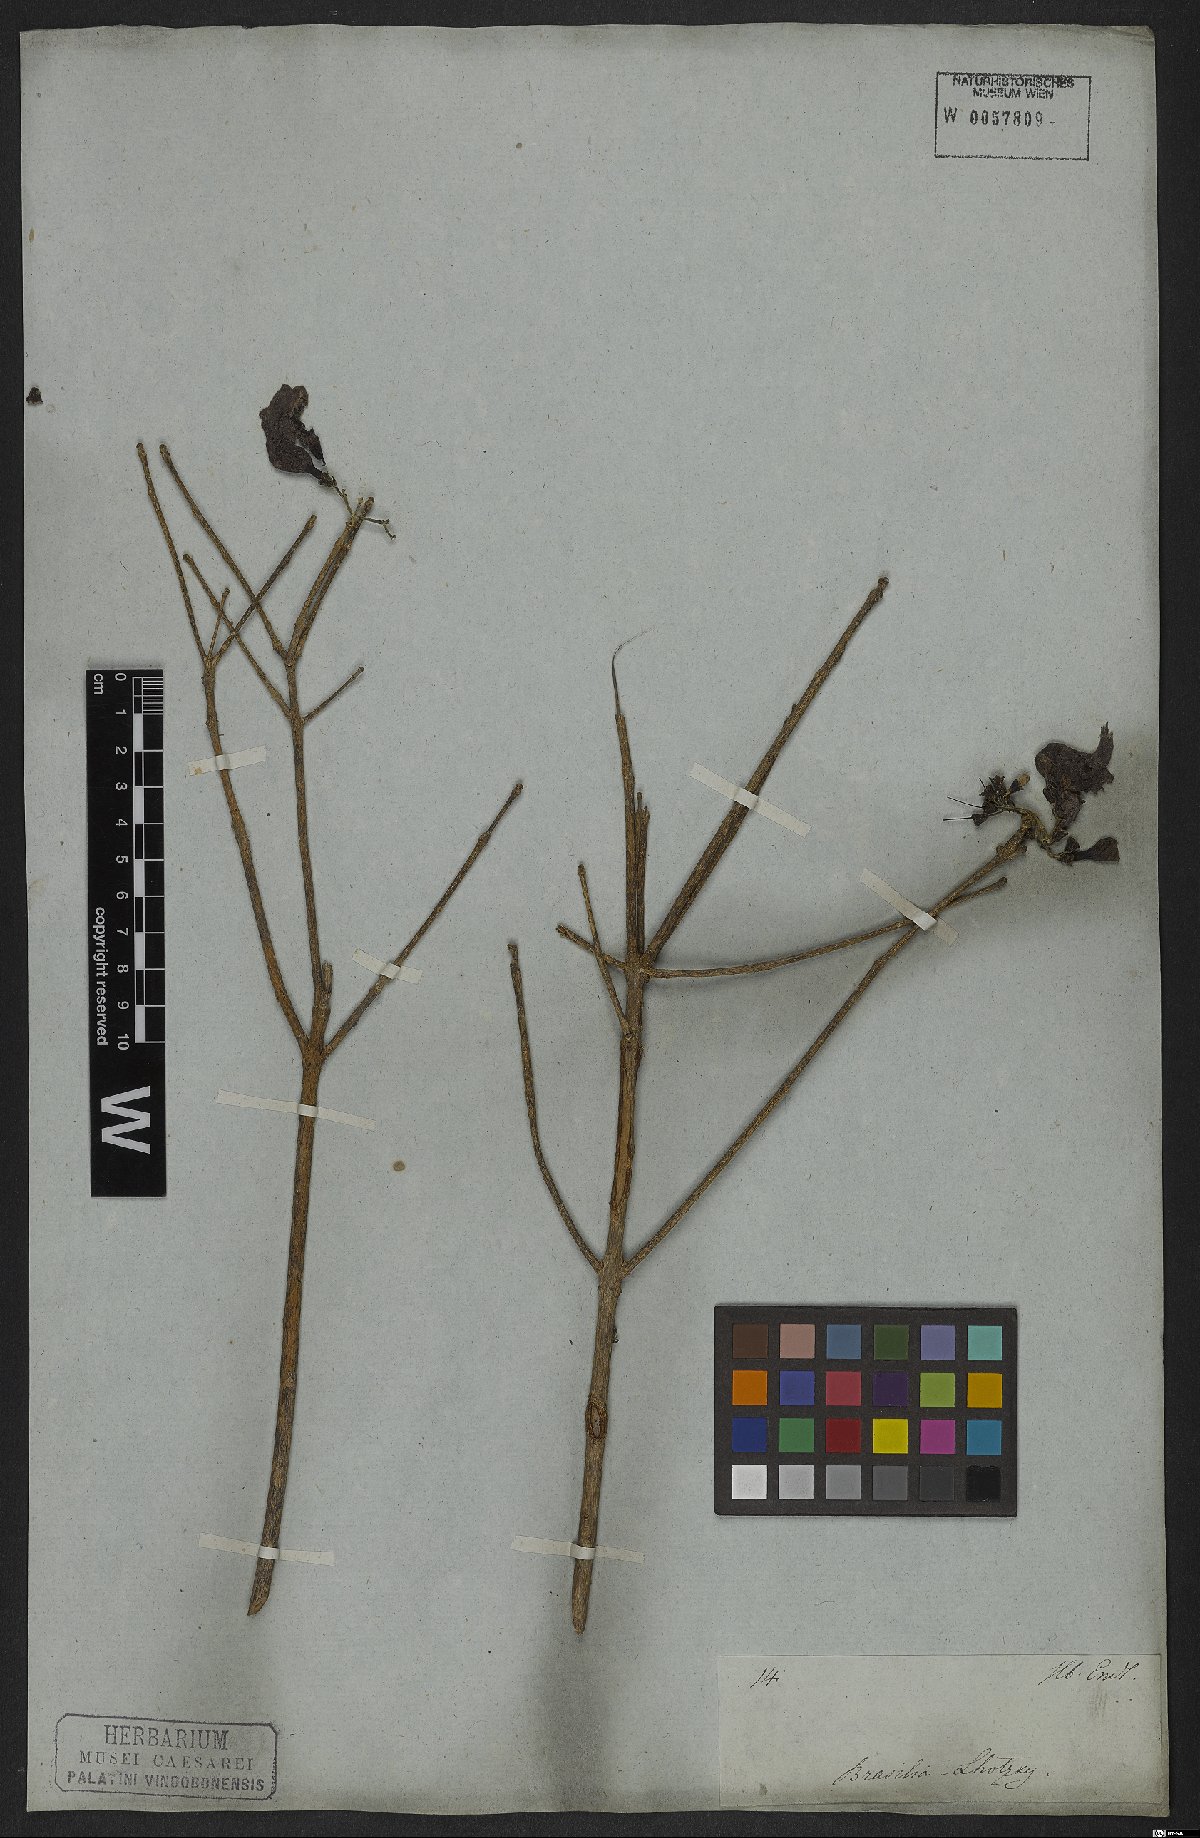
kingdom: Plantae
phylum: Tracheophyta
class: Magnoliopsida
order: Lamiales
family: Bignoniaceae
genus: Tabebuia
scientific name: Tabebuia aurea
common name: Caribbean trumpet-tree
